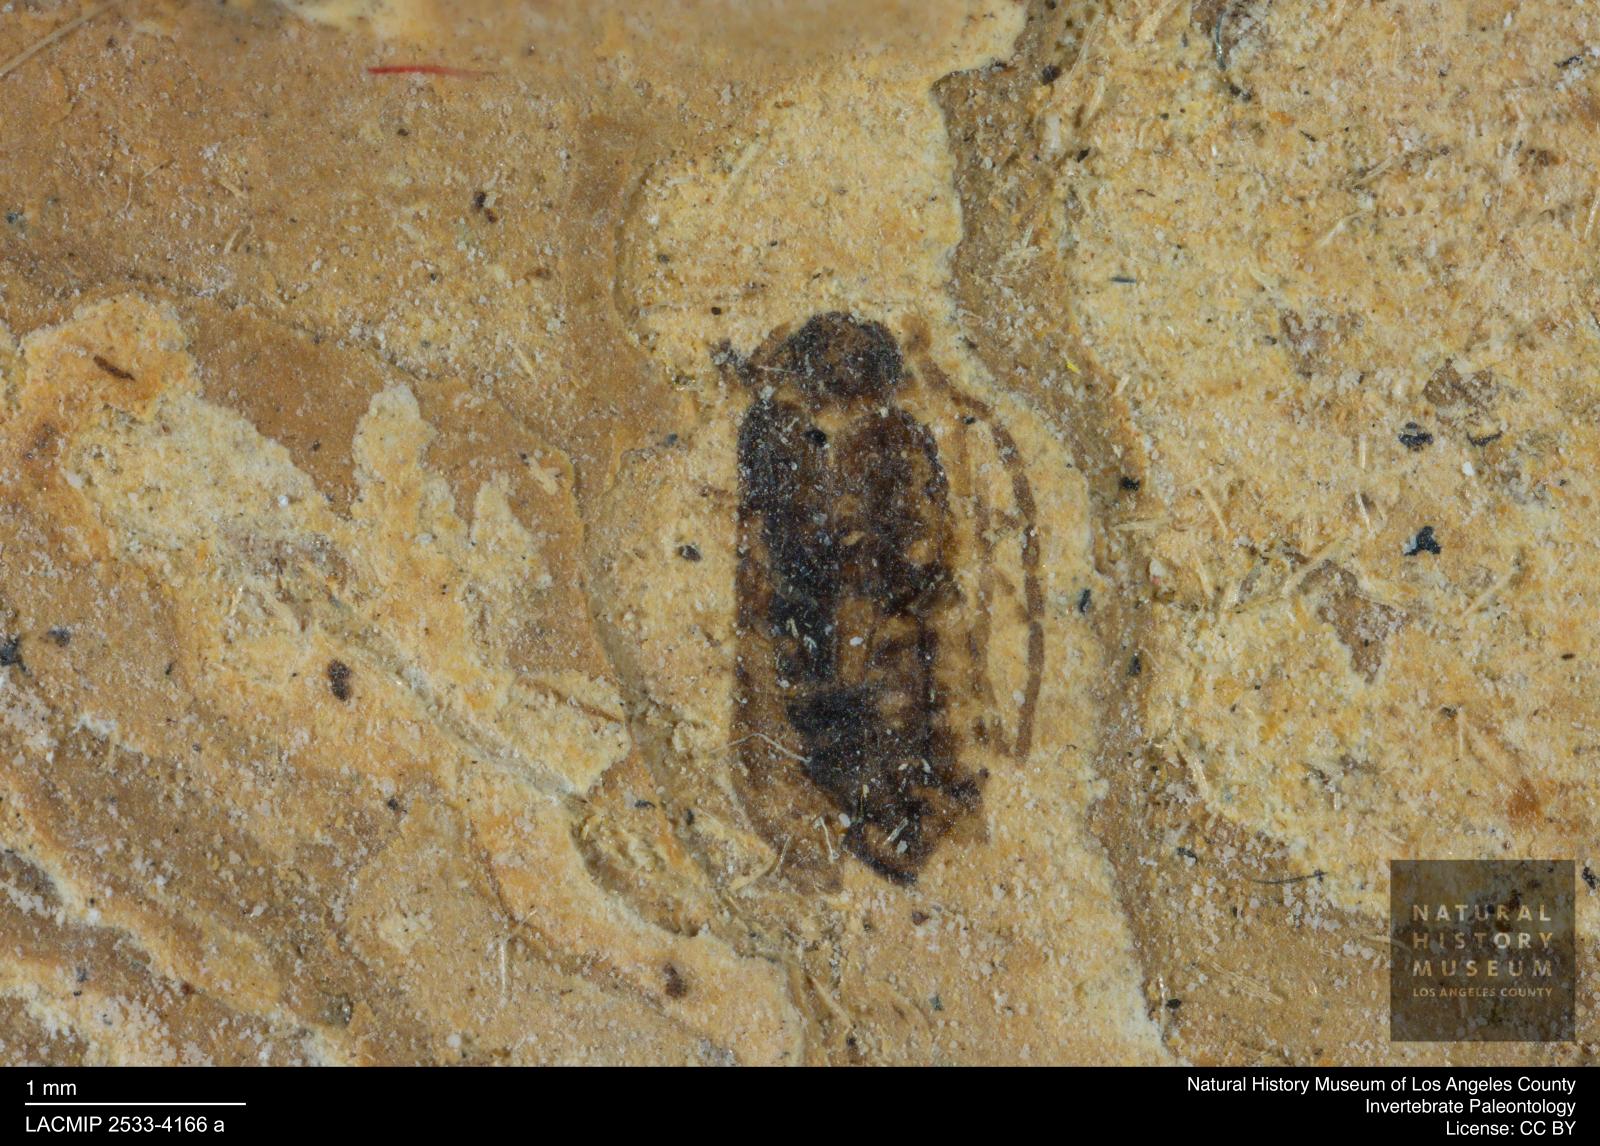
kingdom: Animalia
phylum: Arthropoda
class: Insecta
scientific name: Insecta
